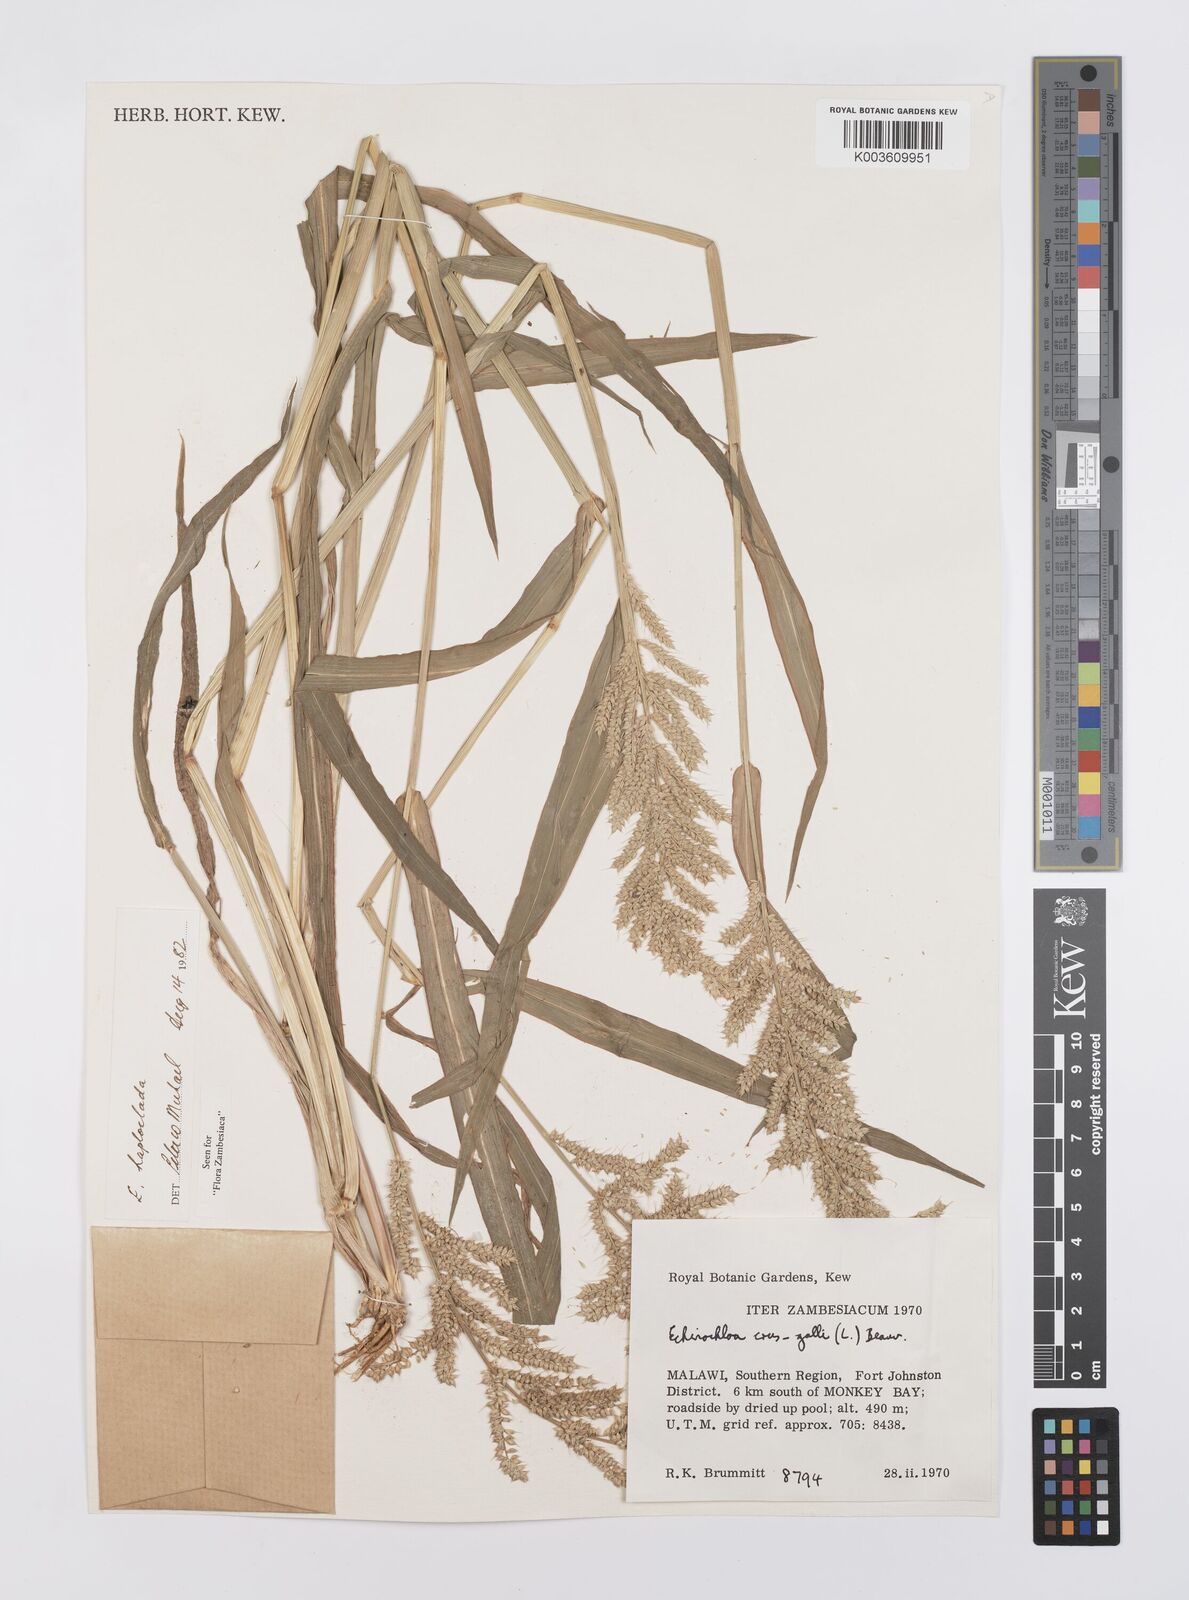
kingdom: Plantae
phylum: Tracheophyta
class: Liliopsida
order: Poales
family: Poaceae
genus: Echinochloa
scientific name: Echinochloa haploclada
